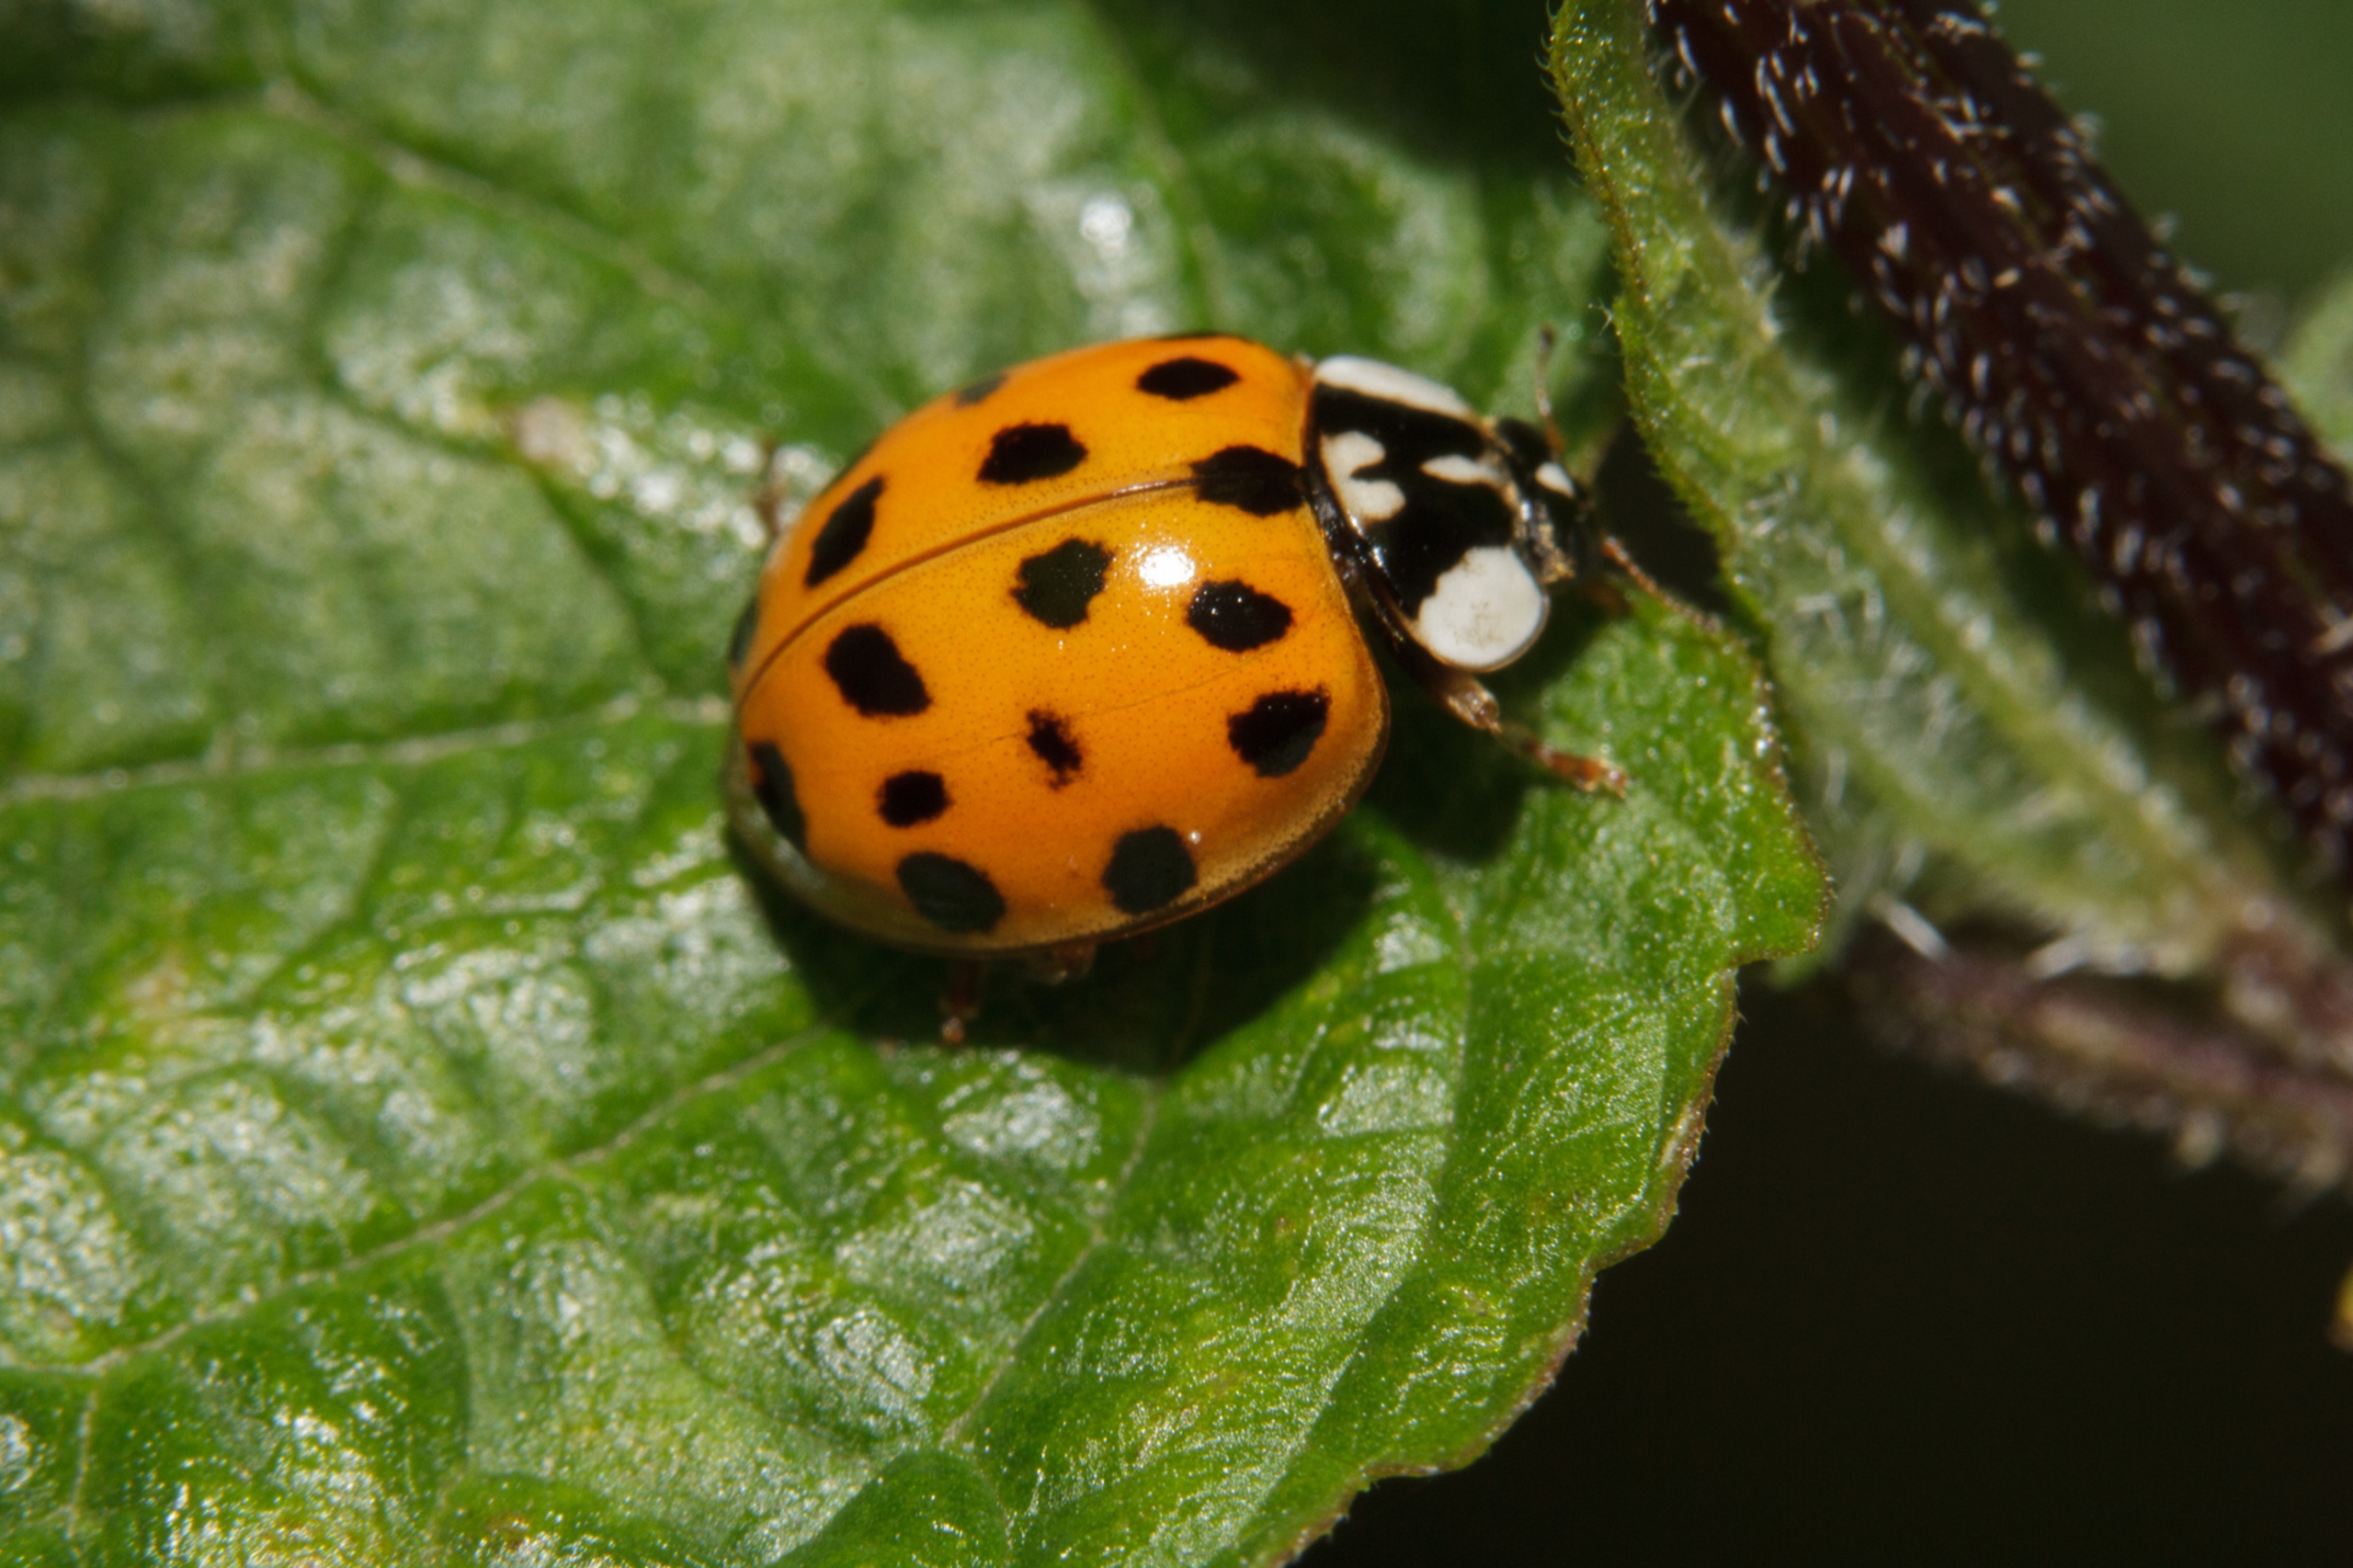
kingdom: Animalia
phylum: Arthropoda
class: Insecta
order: Coleoptera
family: Coccinellidae
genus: Harmonia
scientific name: Harmonia axyridis
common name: Harlekinmariehøne
